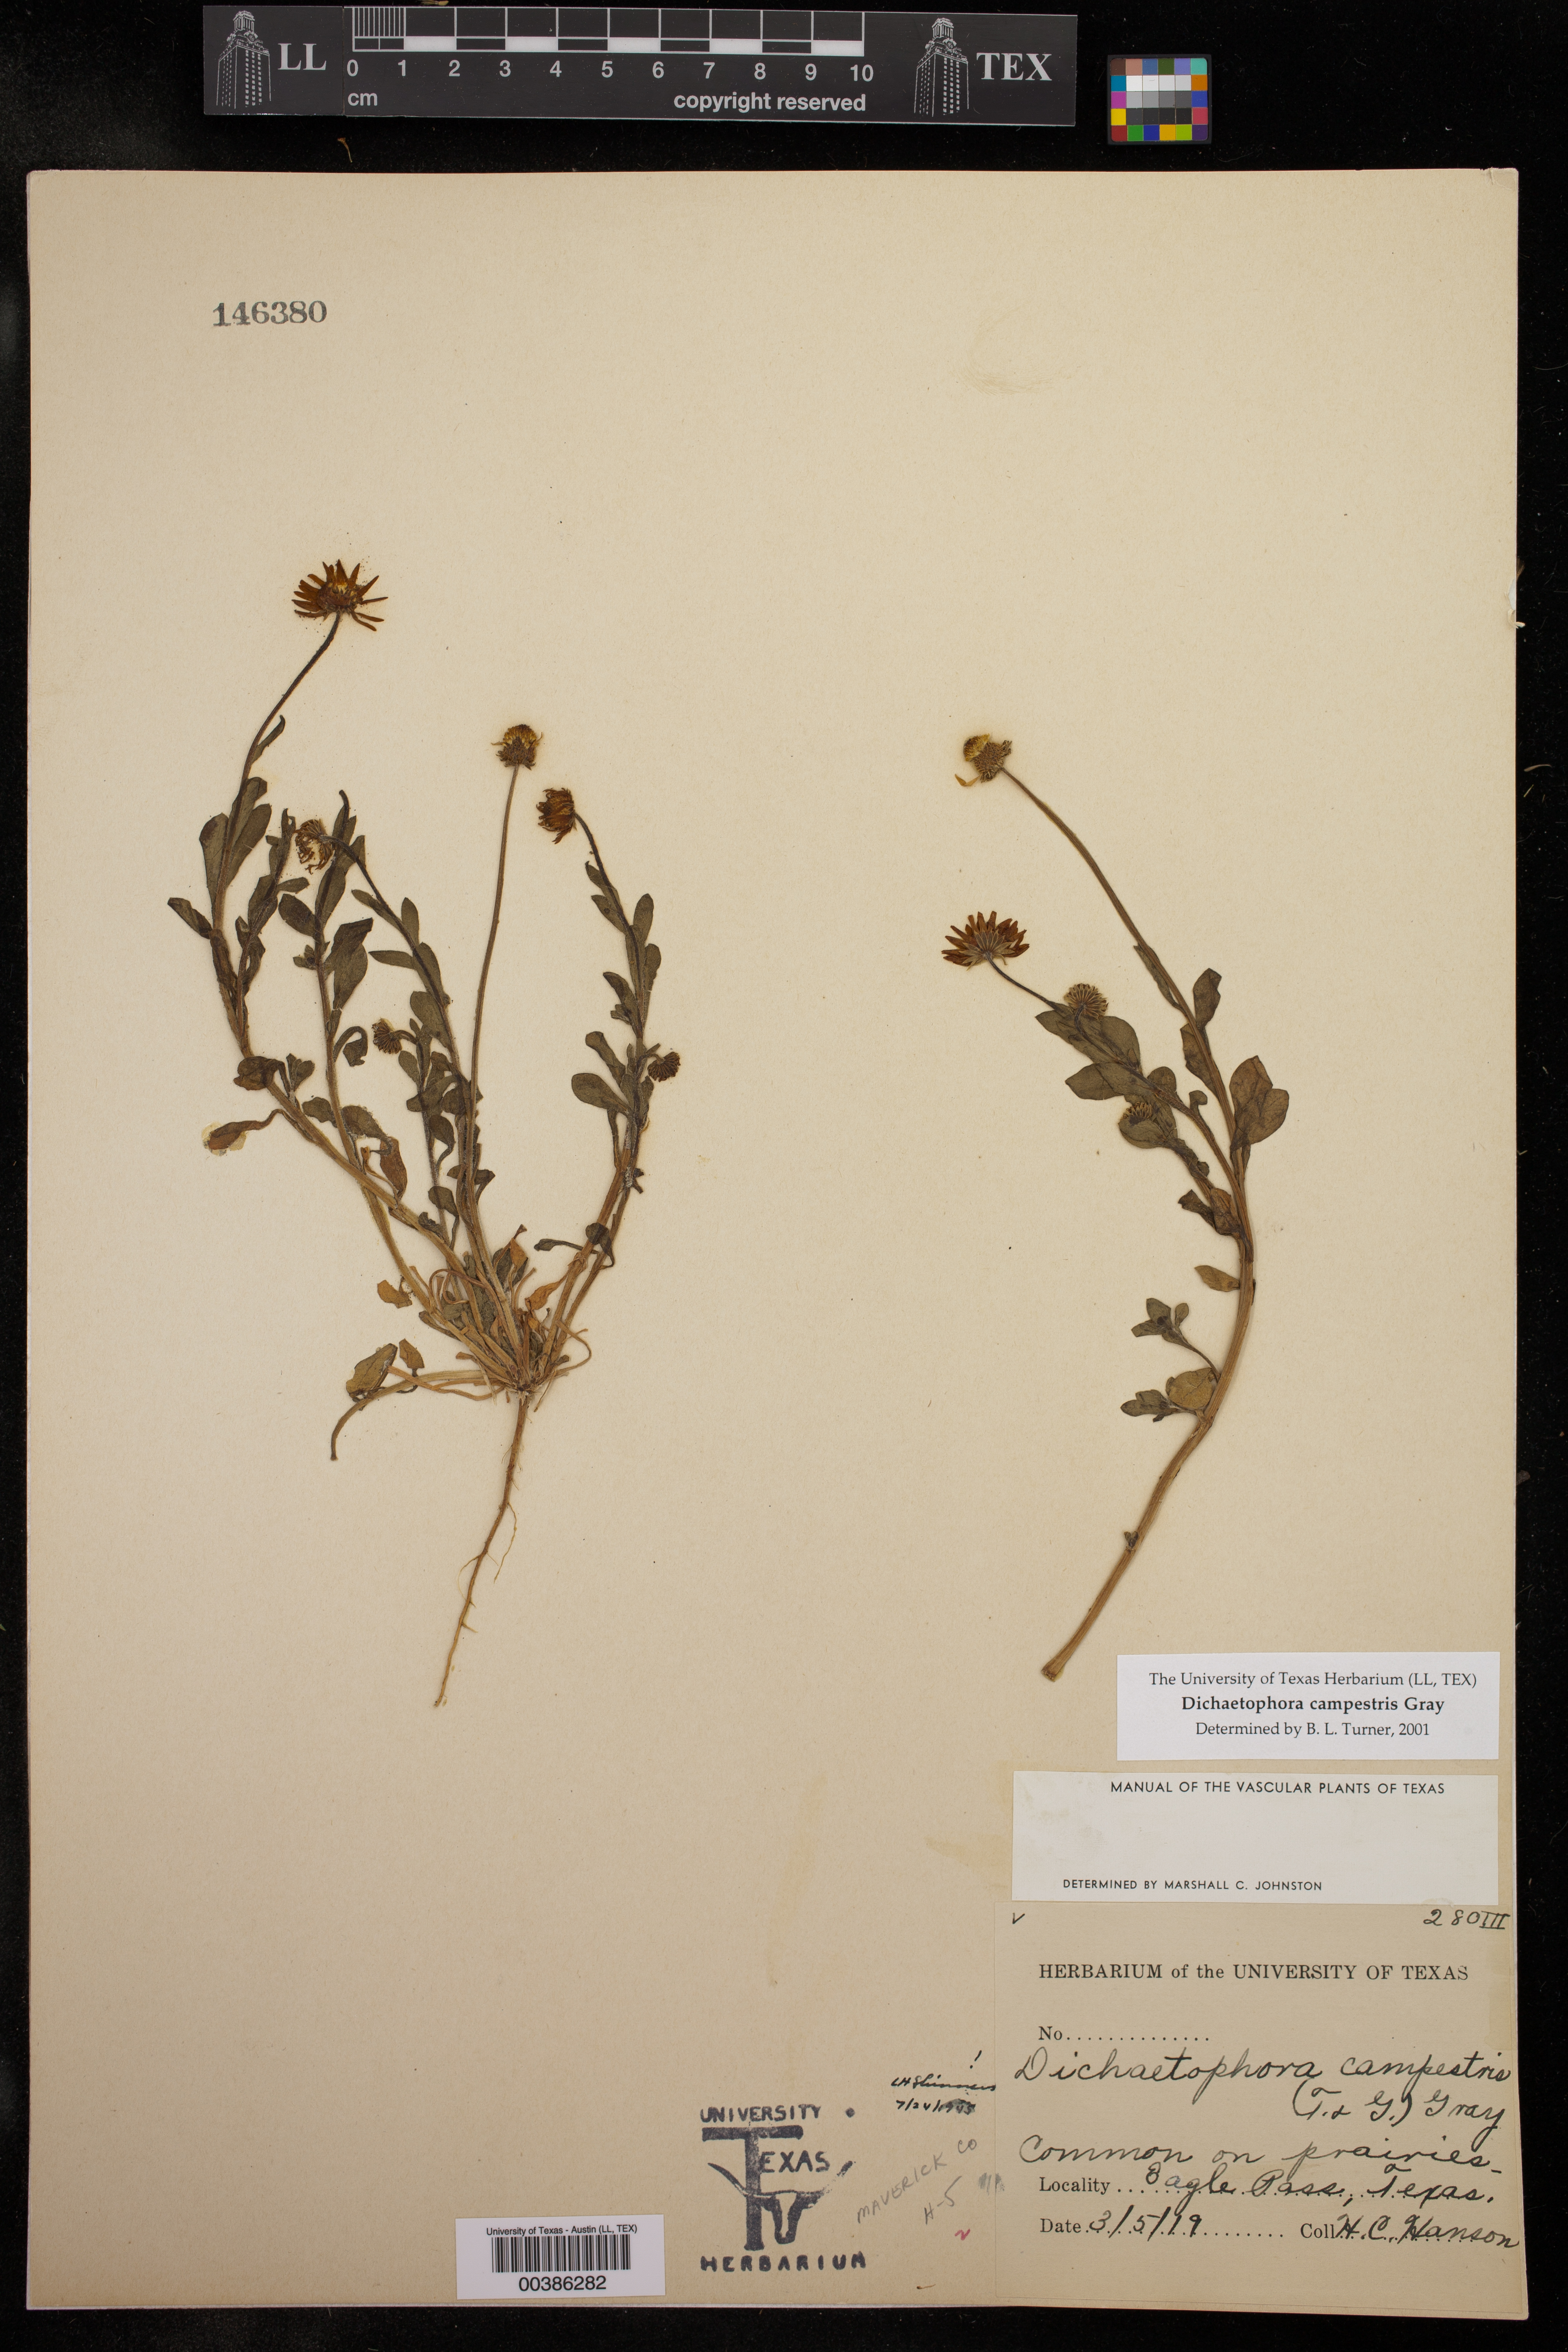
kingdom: Plantae
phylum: Tracheophyta
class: Magnoliopsida
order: Asterales
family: Asteraceae
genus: Dichaetophora
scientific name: Dichaetophora campestris
